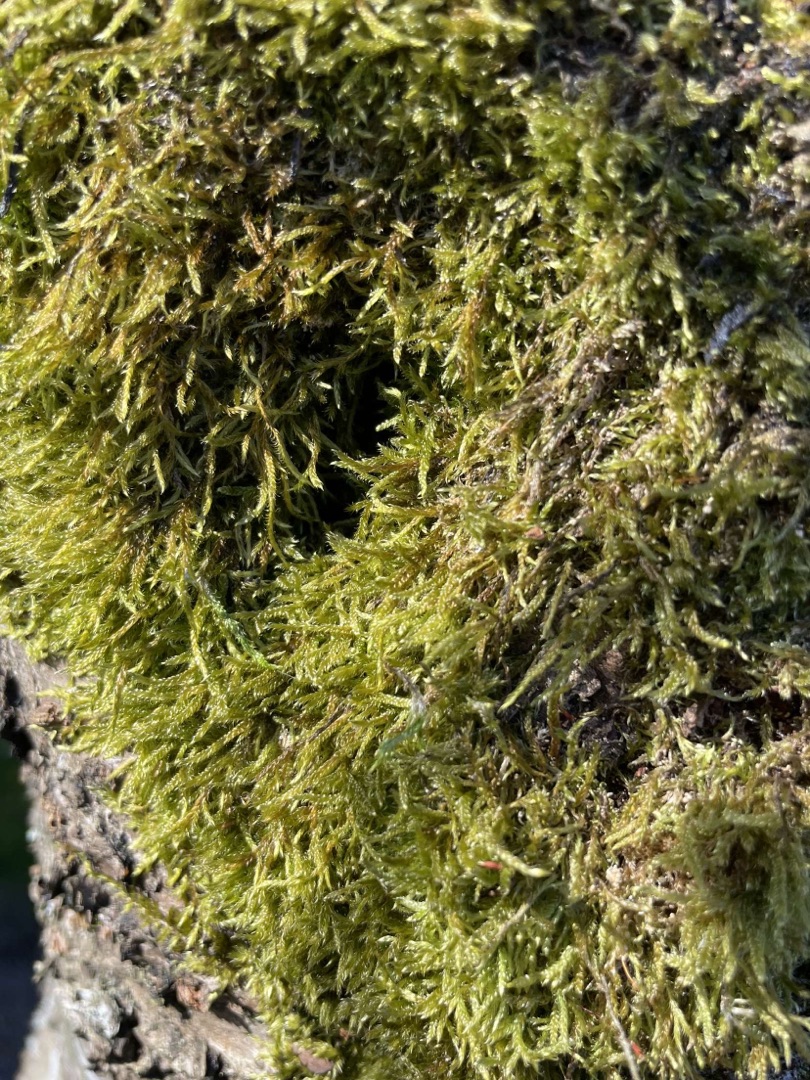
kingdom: Plantae
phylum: Bryophyta
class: Bryopsida
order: Hypnales
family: Hypnaceae
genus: Hypnum
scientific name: Hypnum
